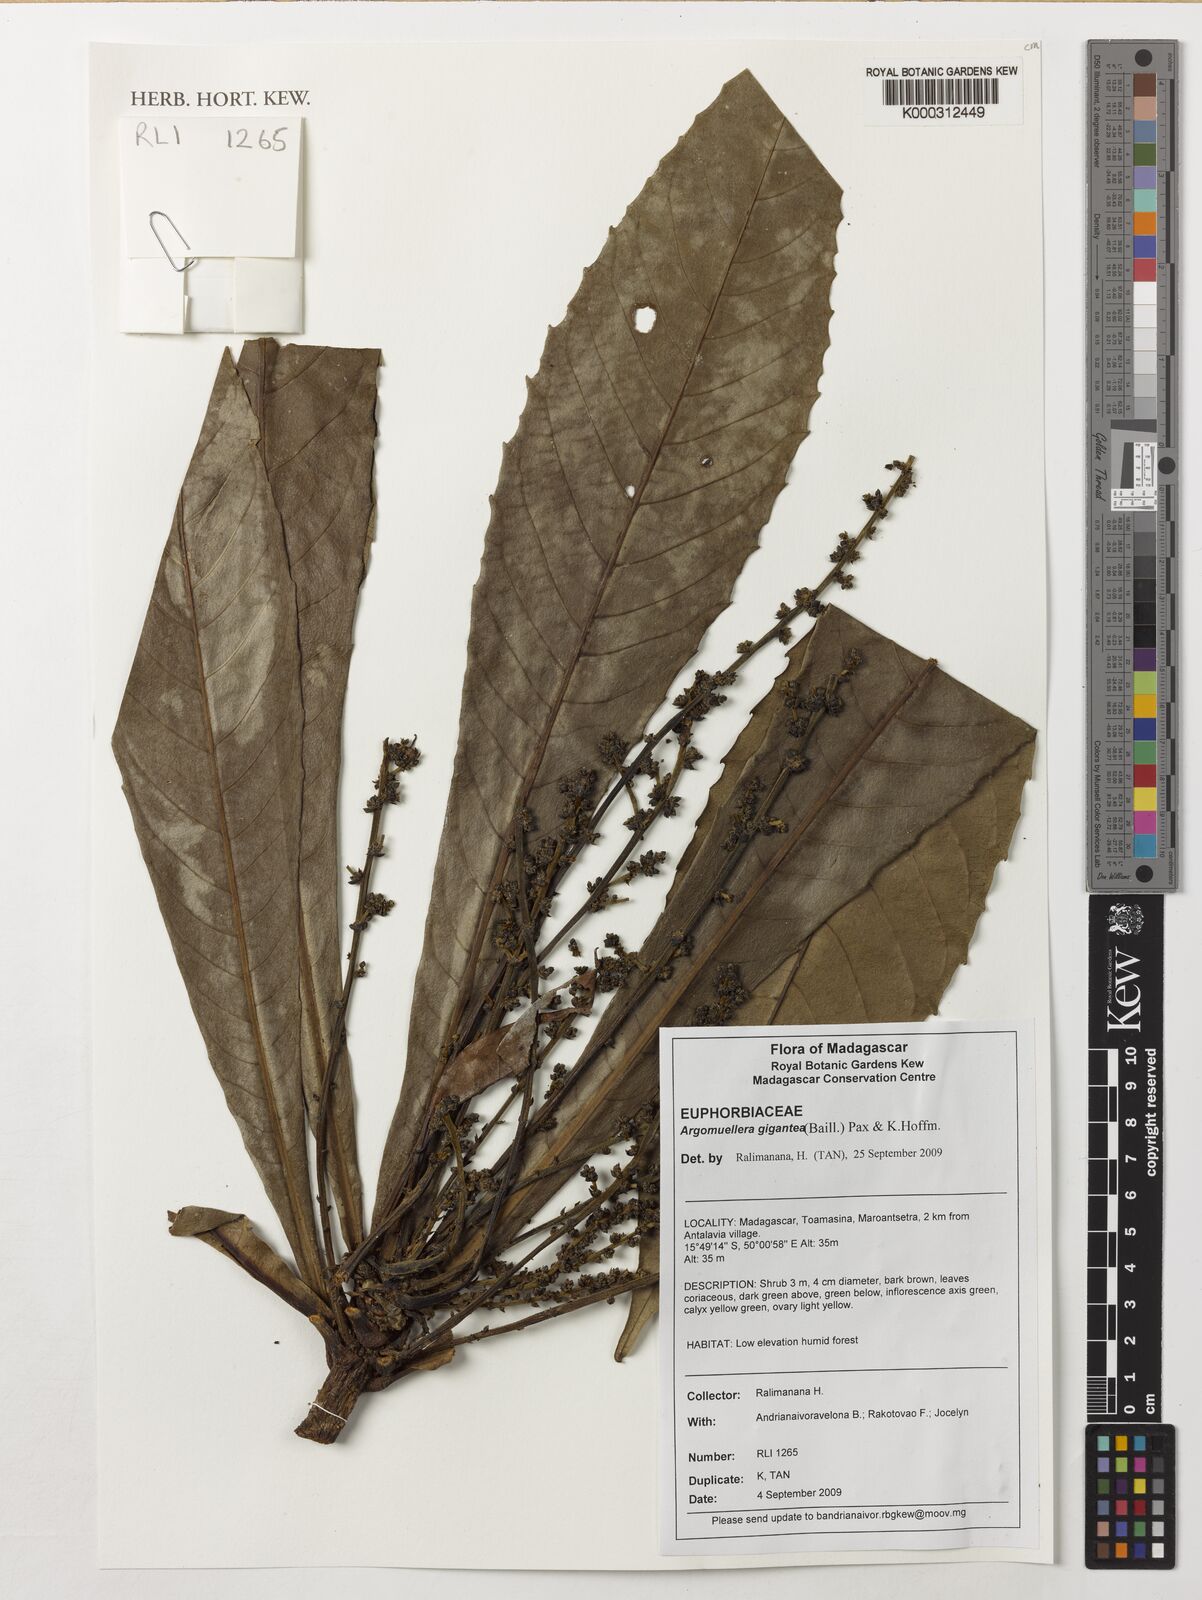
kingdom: Plantae
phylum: Tracheophyta
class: Magnoliopsida
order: Malpighiales
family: Euphorbiaceae
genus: Argomuellera
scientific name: Argomuellera gigantea
